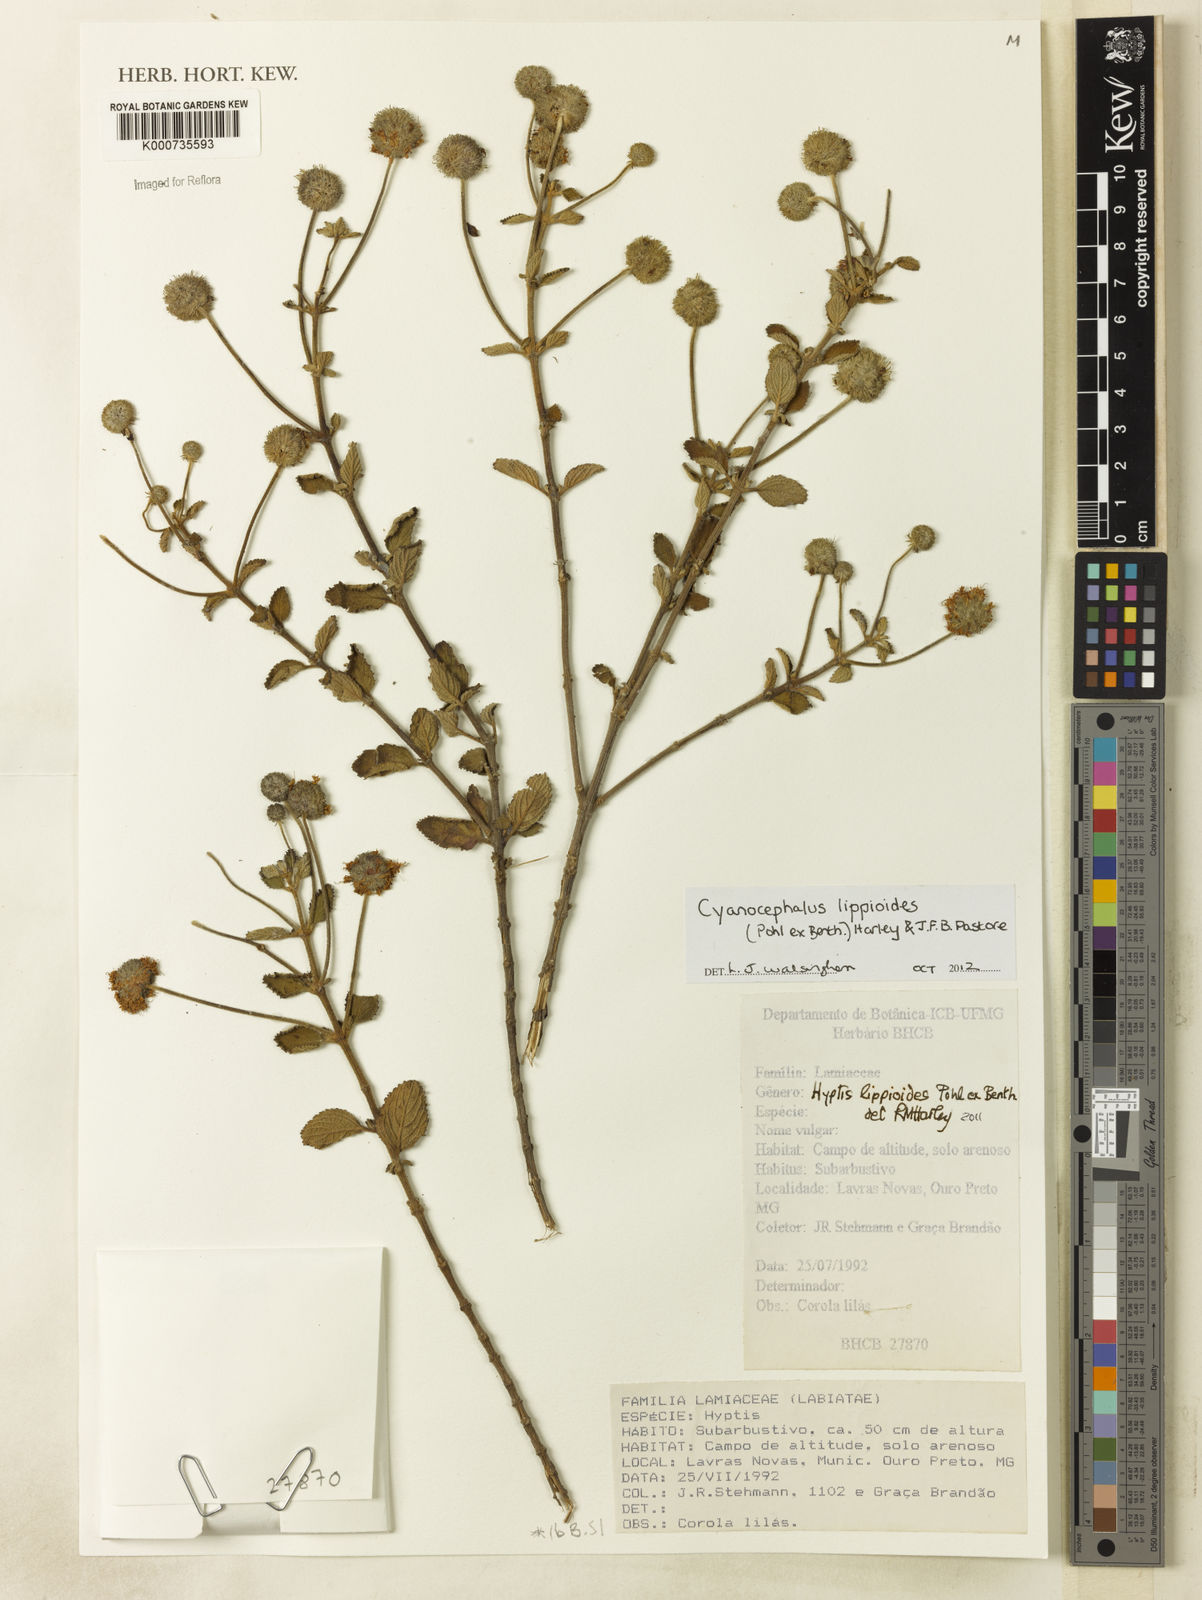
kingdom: Plantae
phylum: Tracheophyta
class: Magnoliopsida
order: Lamiales
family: Lamiaceae
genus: Cyanocephalus
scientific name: Cyanocephalus lippioides
